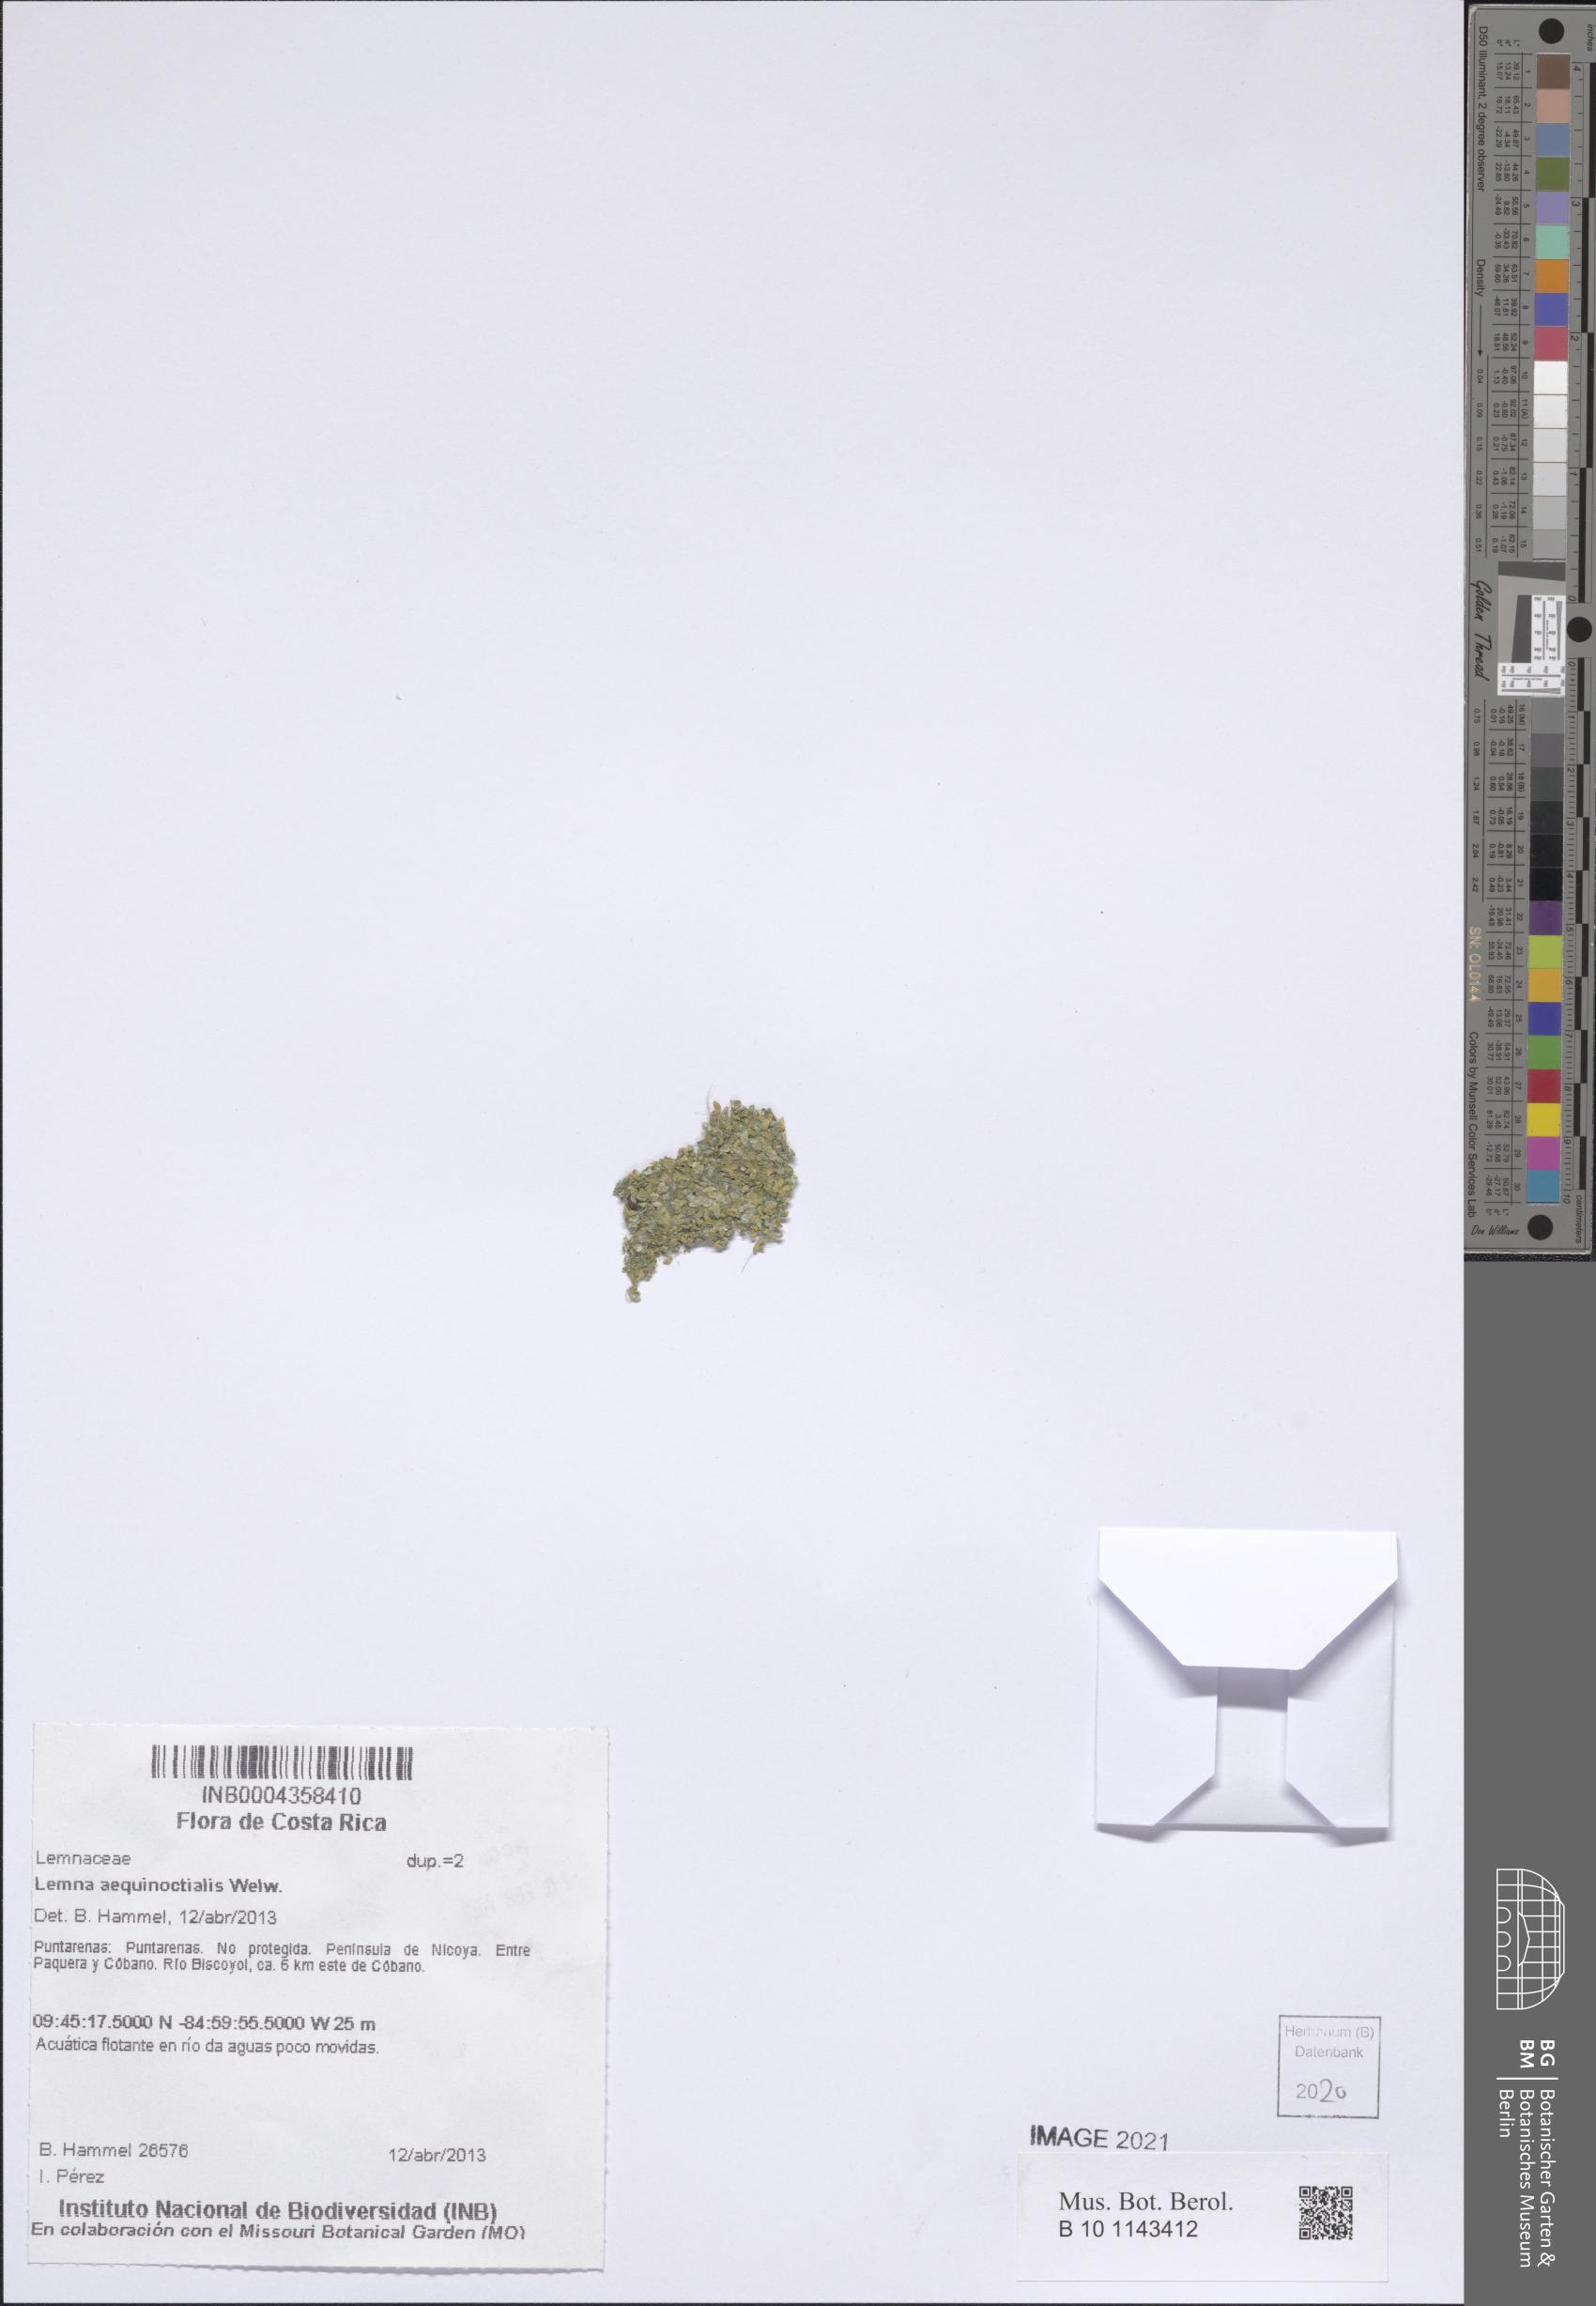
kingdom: Plantae
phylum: Tracheophyta
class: Liliopsida
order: Alismatales
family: Araceae
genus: Lemna
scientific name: Lemna aequinoctialis
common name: Duckweed
